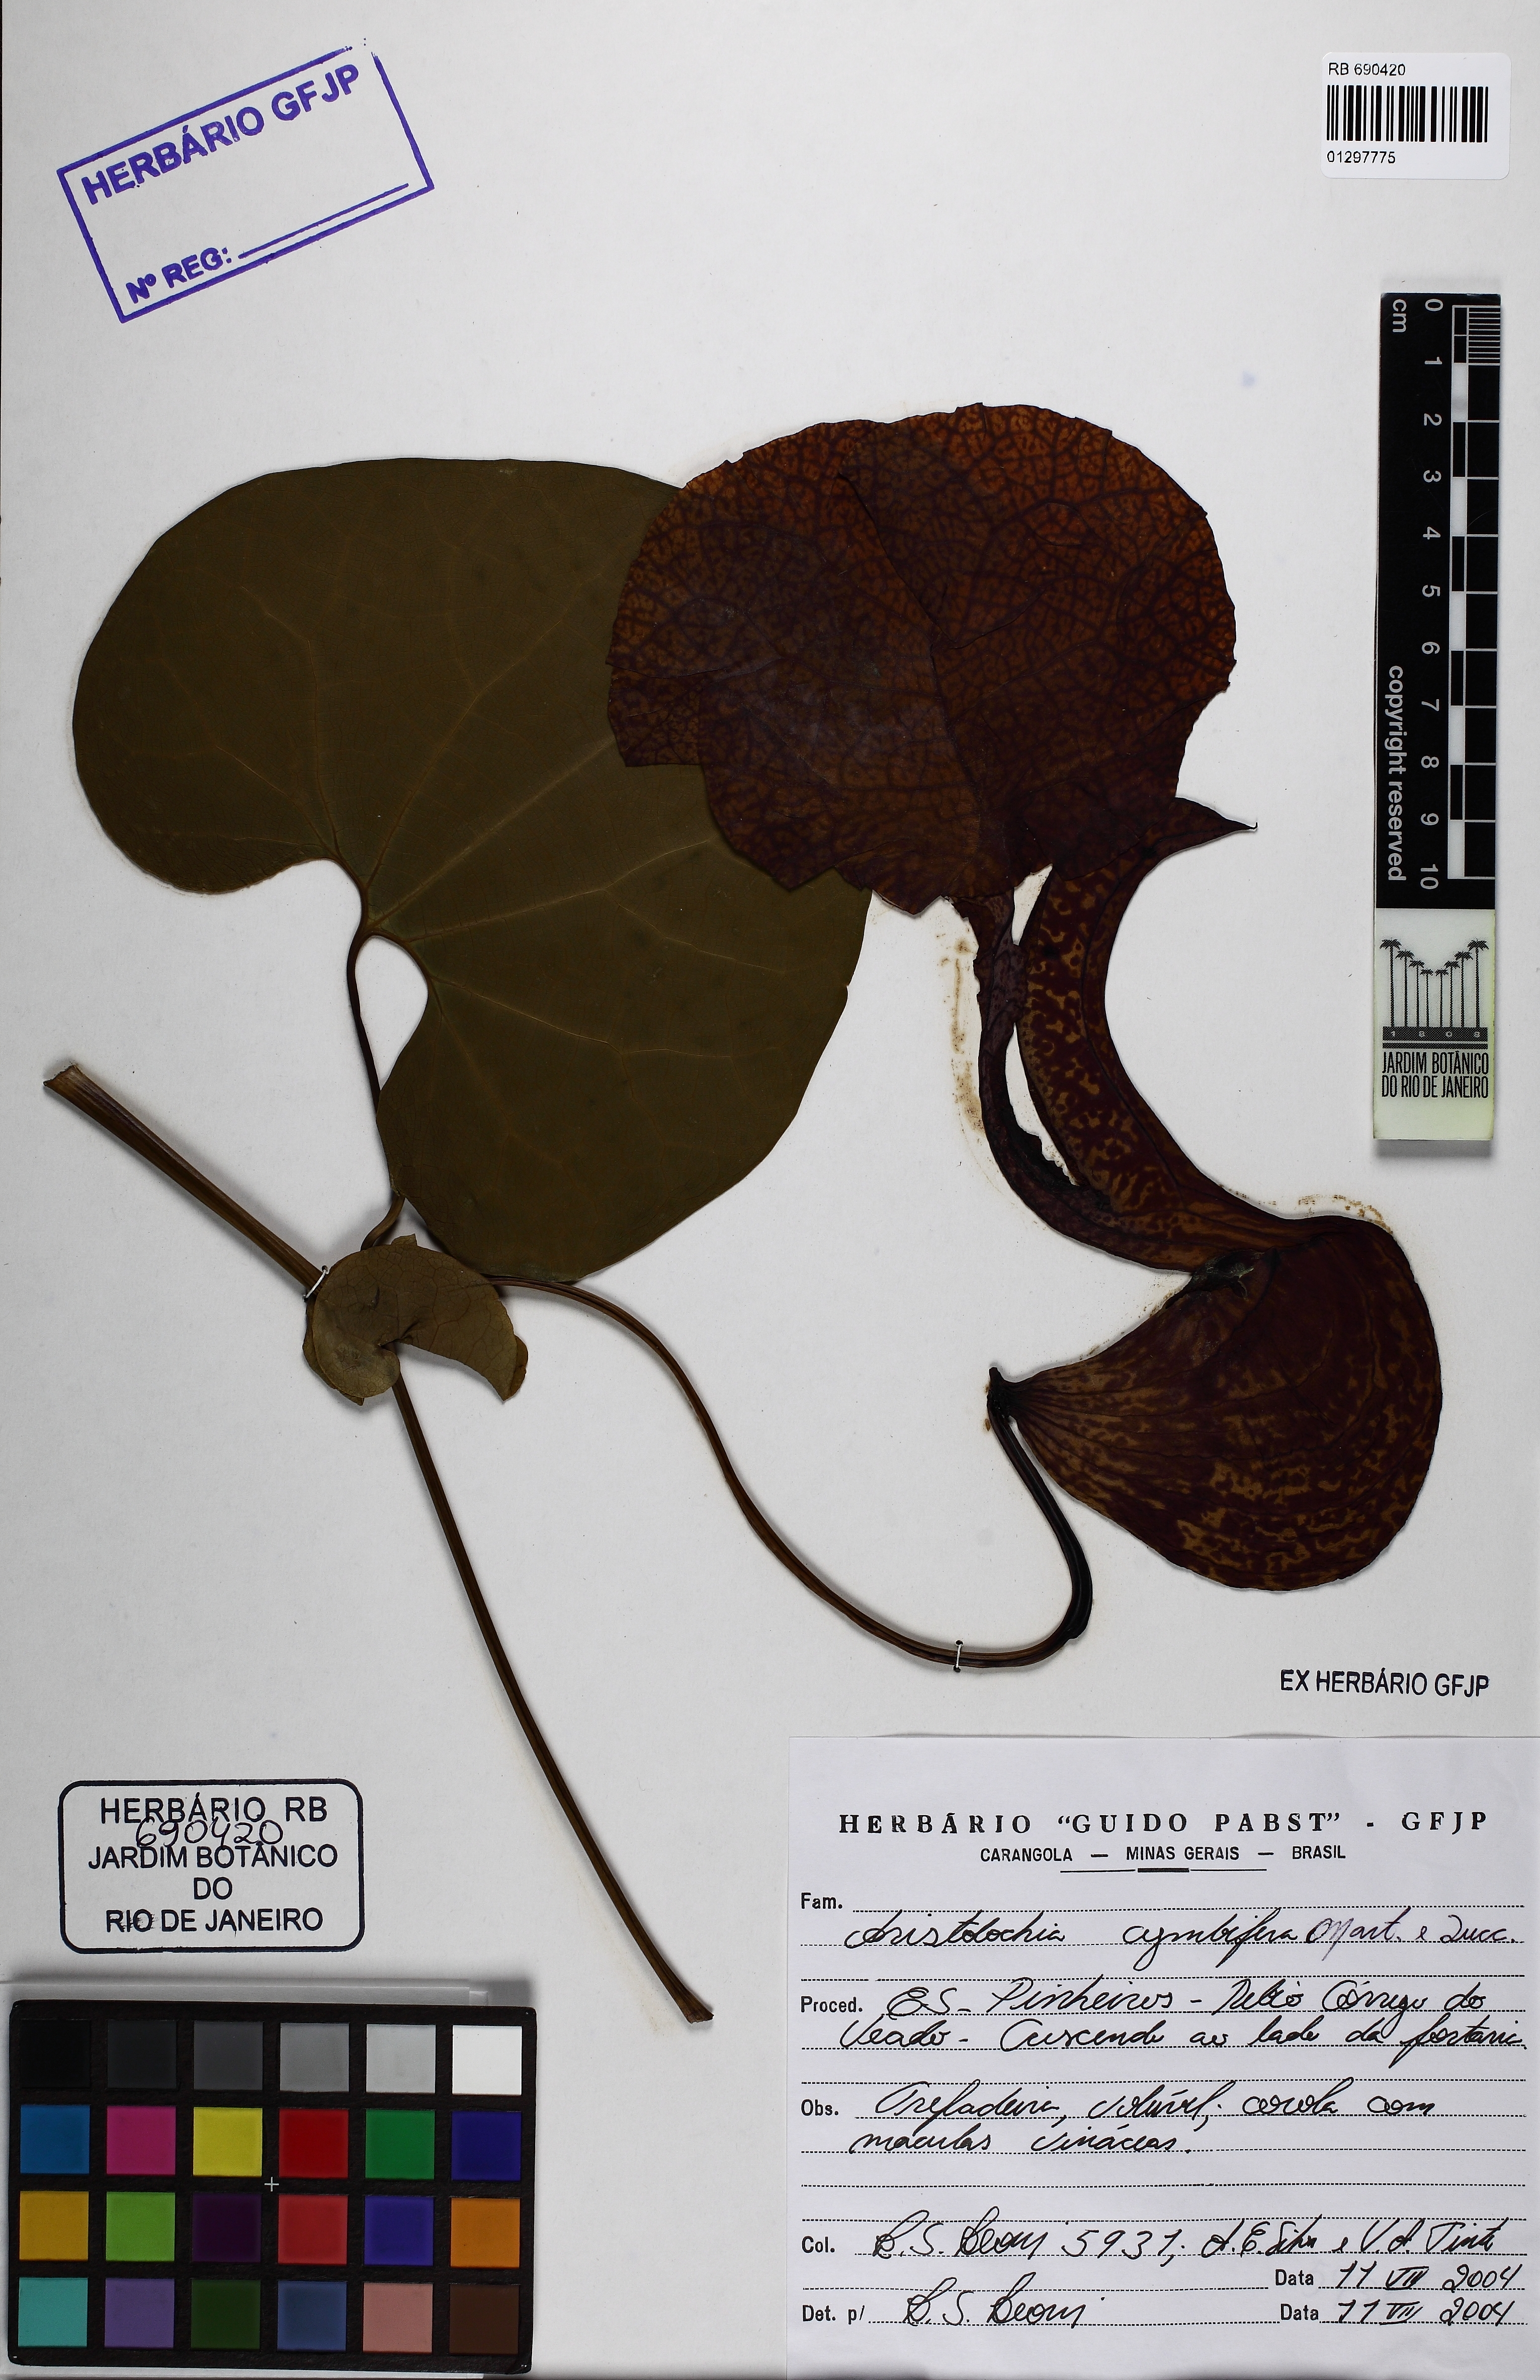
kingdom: Plantae
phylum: Tracheophyta
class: Magnoliopsida
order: Piperales
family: Aristolochiaceae
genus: Aristolochia
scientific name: Aristolochia cymbifera
